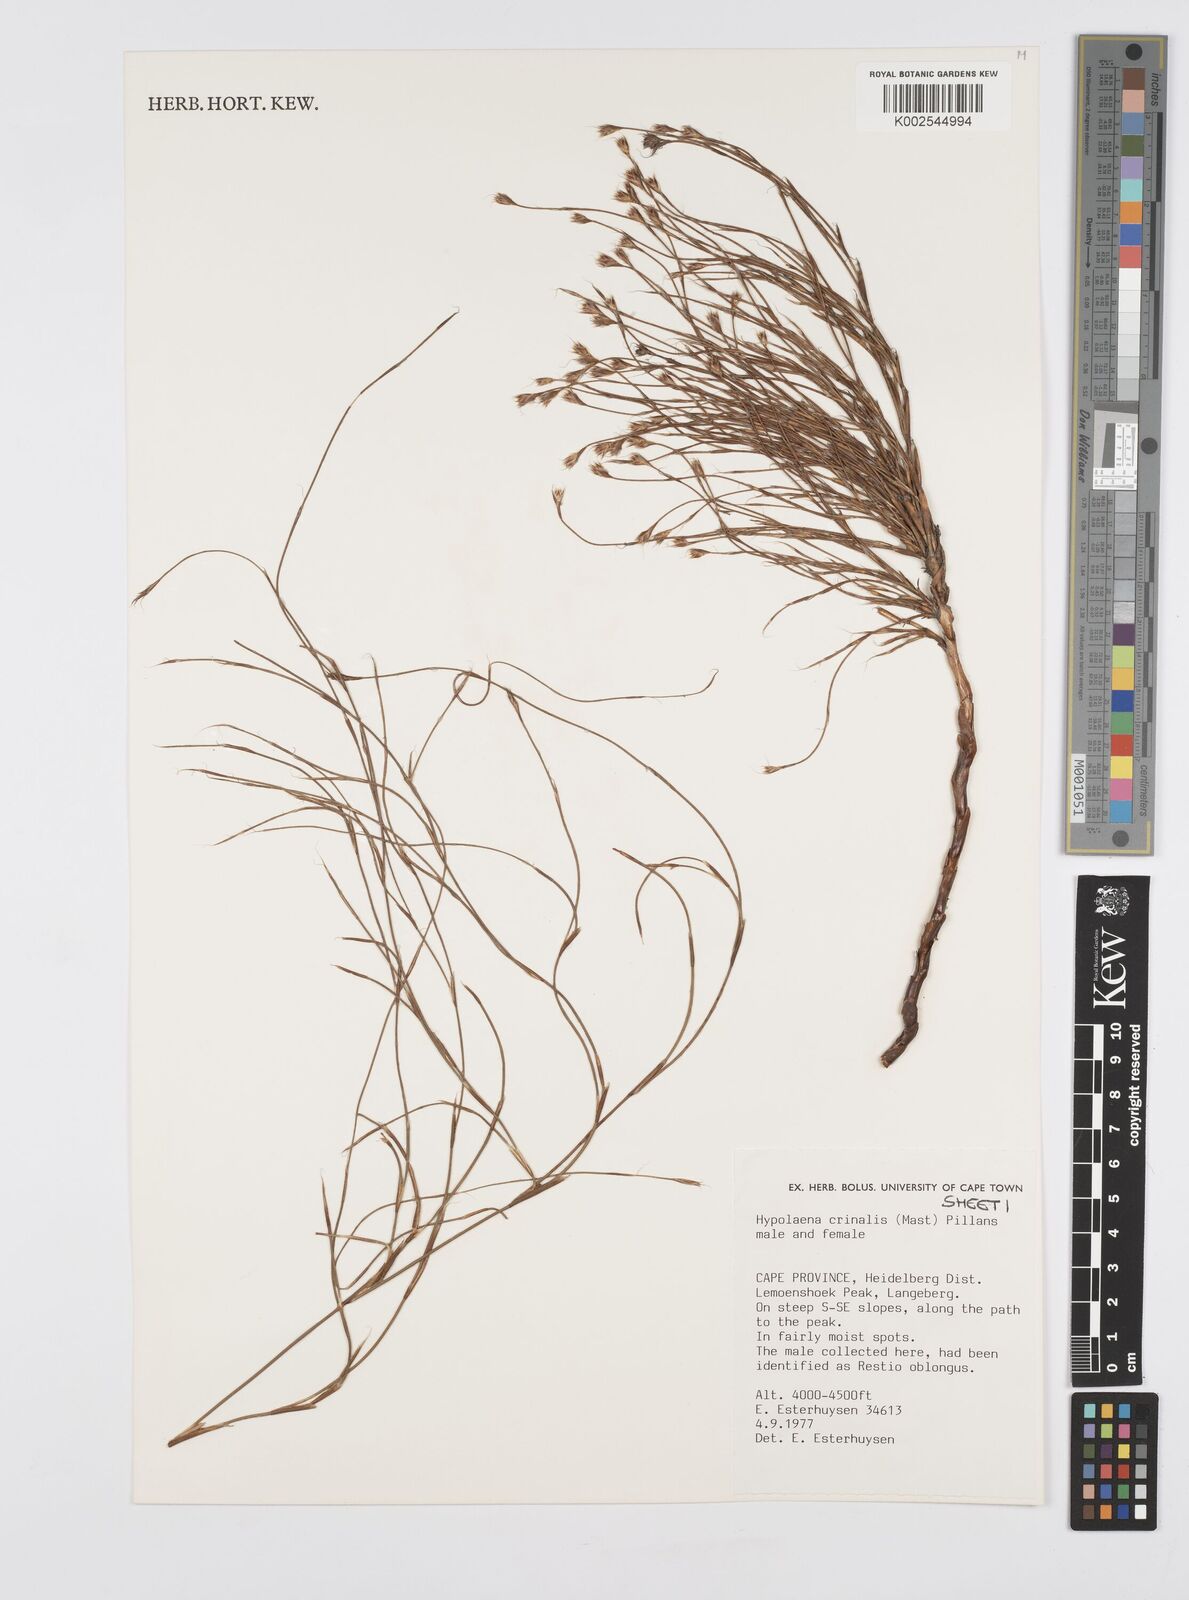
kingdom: Plantae
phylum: Tracheophyta
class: Liliopsida
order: Poales
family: Restionaceae
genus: Anthochortus
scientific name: Anthochortus crinalis
